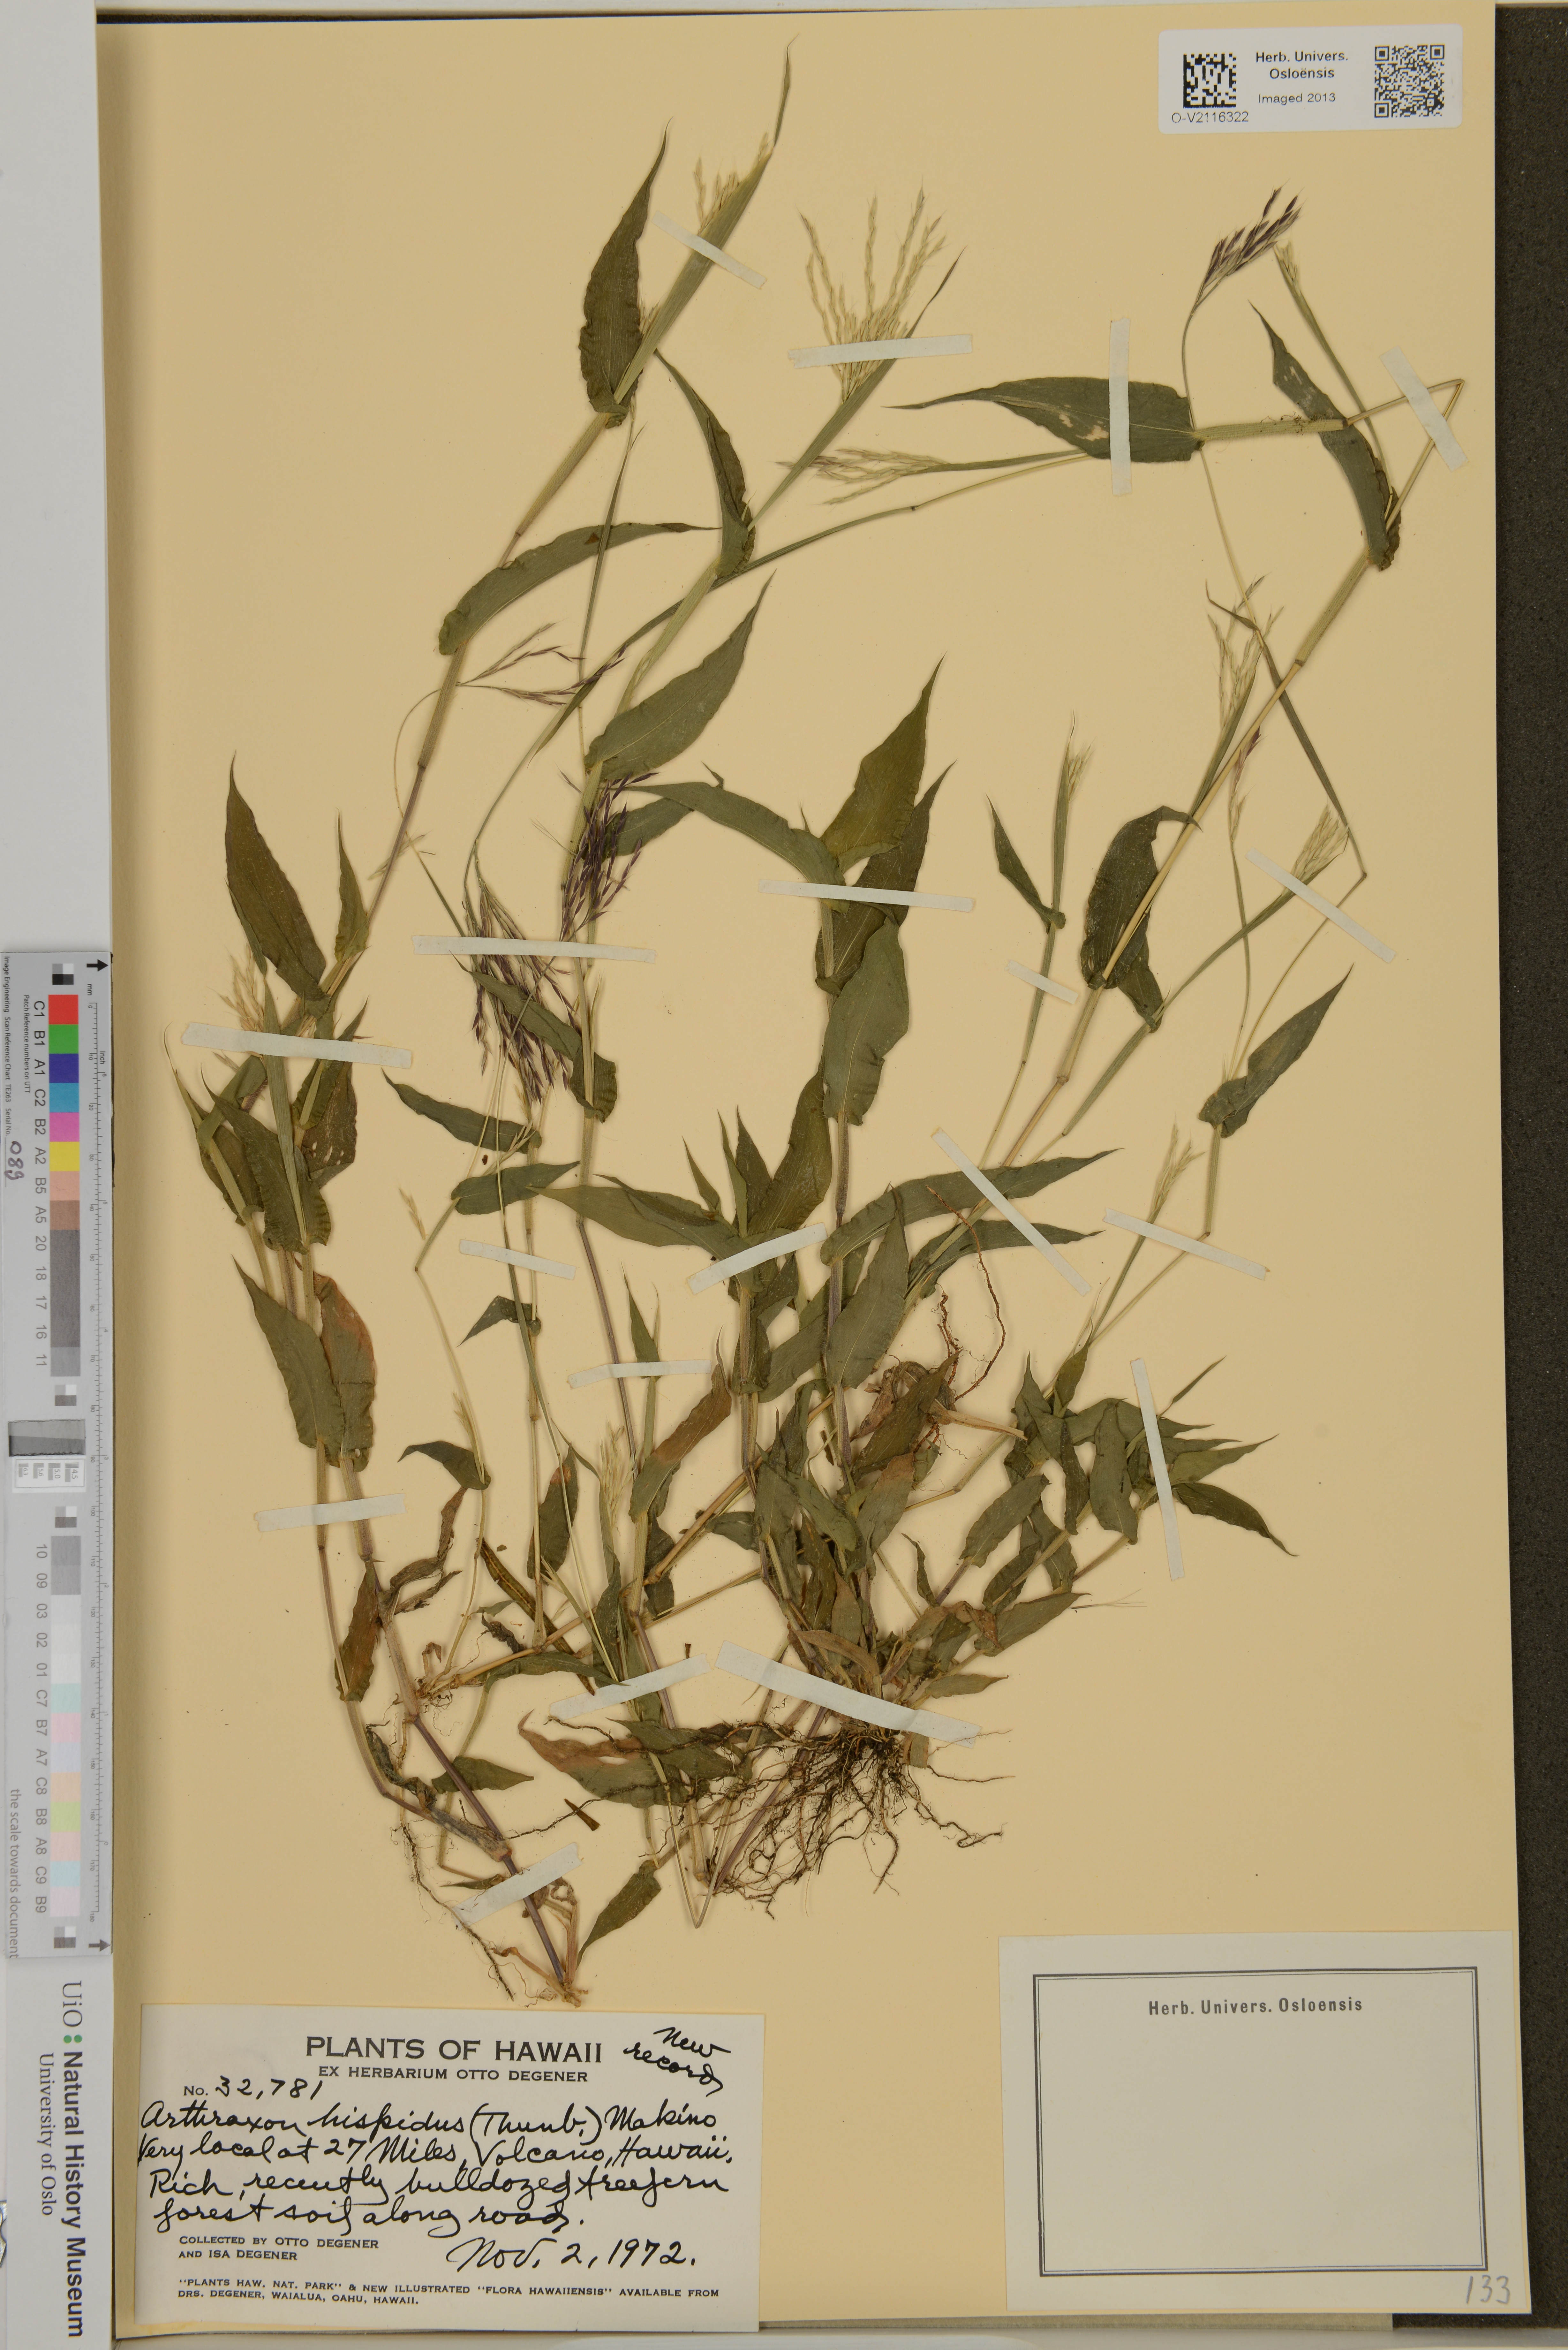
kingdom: Plantae
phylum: Tracheophyta
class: Liliopsida
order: Poales
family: Poaceae
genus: Arthraxon
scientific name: Arthraxon hispidus
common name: Small carpgrass
